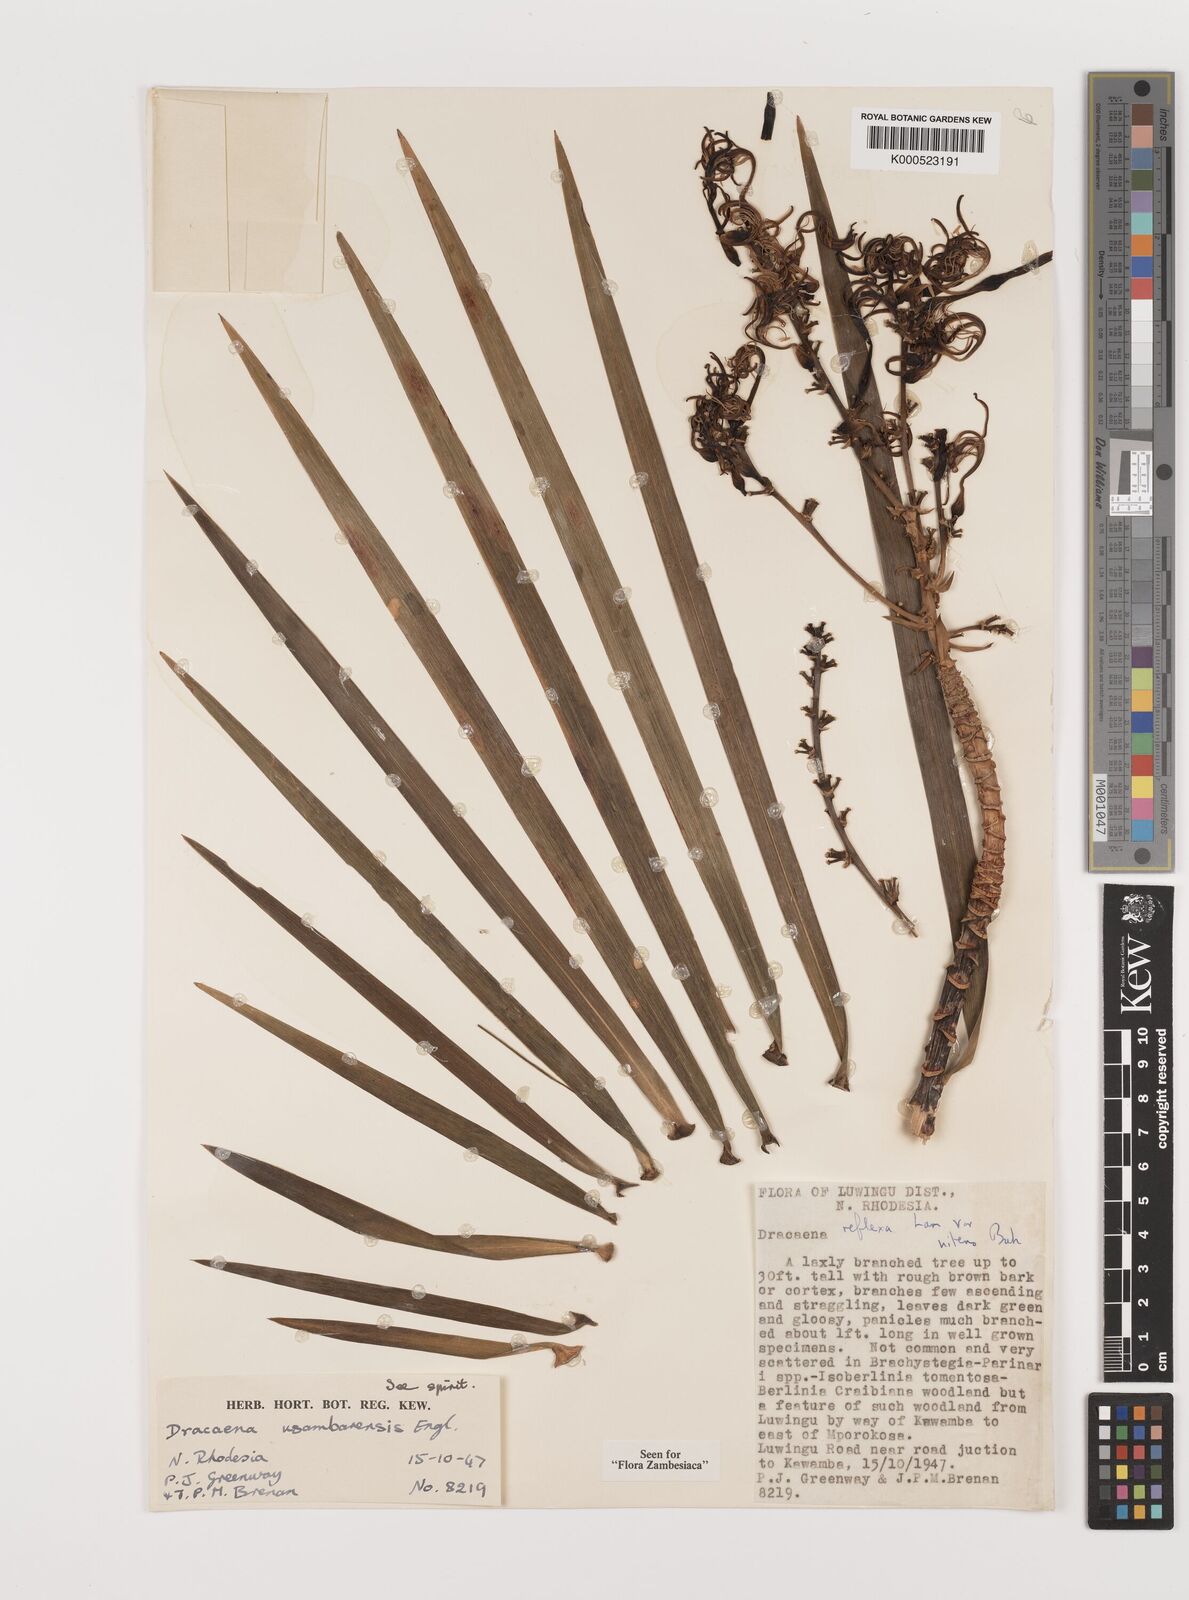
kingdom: Plantae
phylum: Tracheophyta
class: Liliopsida
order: Asparagales
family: Asparagaceae
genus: Dracaena
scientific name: Dracaena usambarensis
